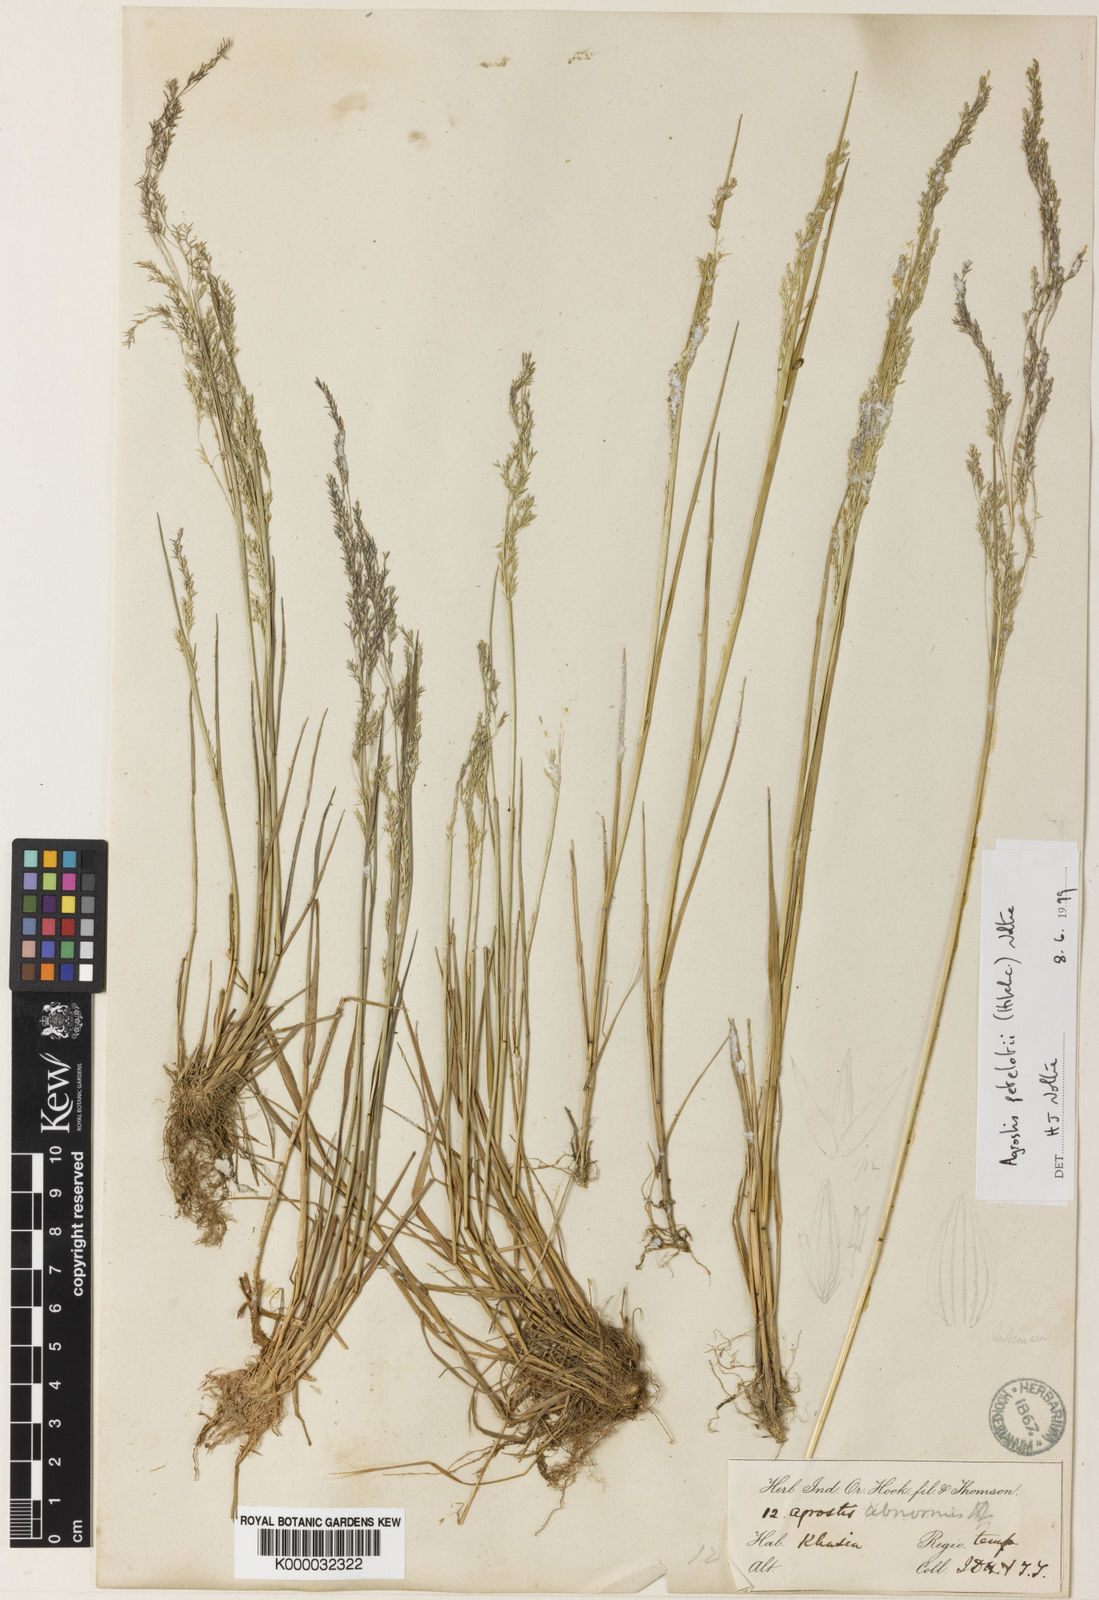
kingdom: Plantae
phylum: Tracheophyta
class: Liliopsida
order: Poales
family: Poaceae
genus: Calamagrostis
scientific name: Calamagrostis abnormis
